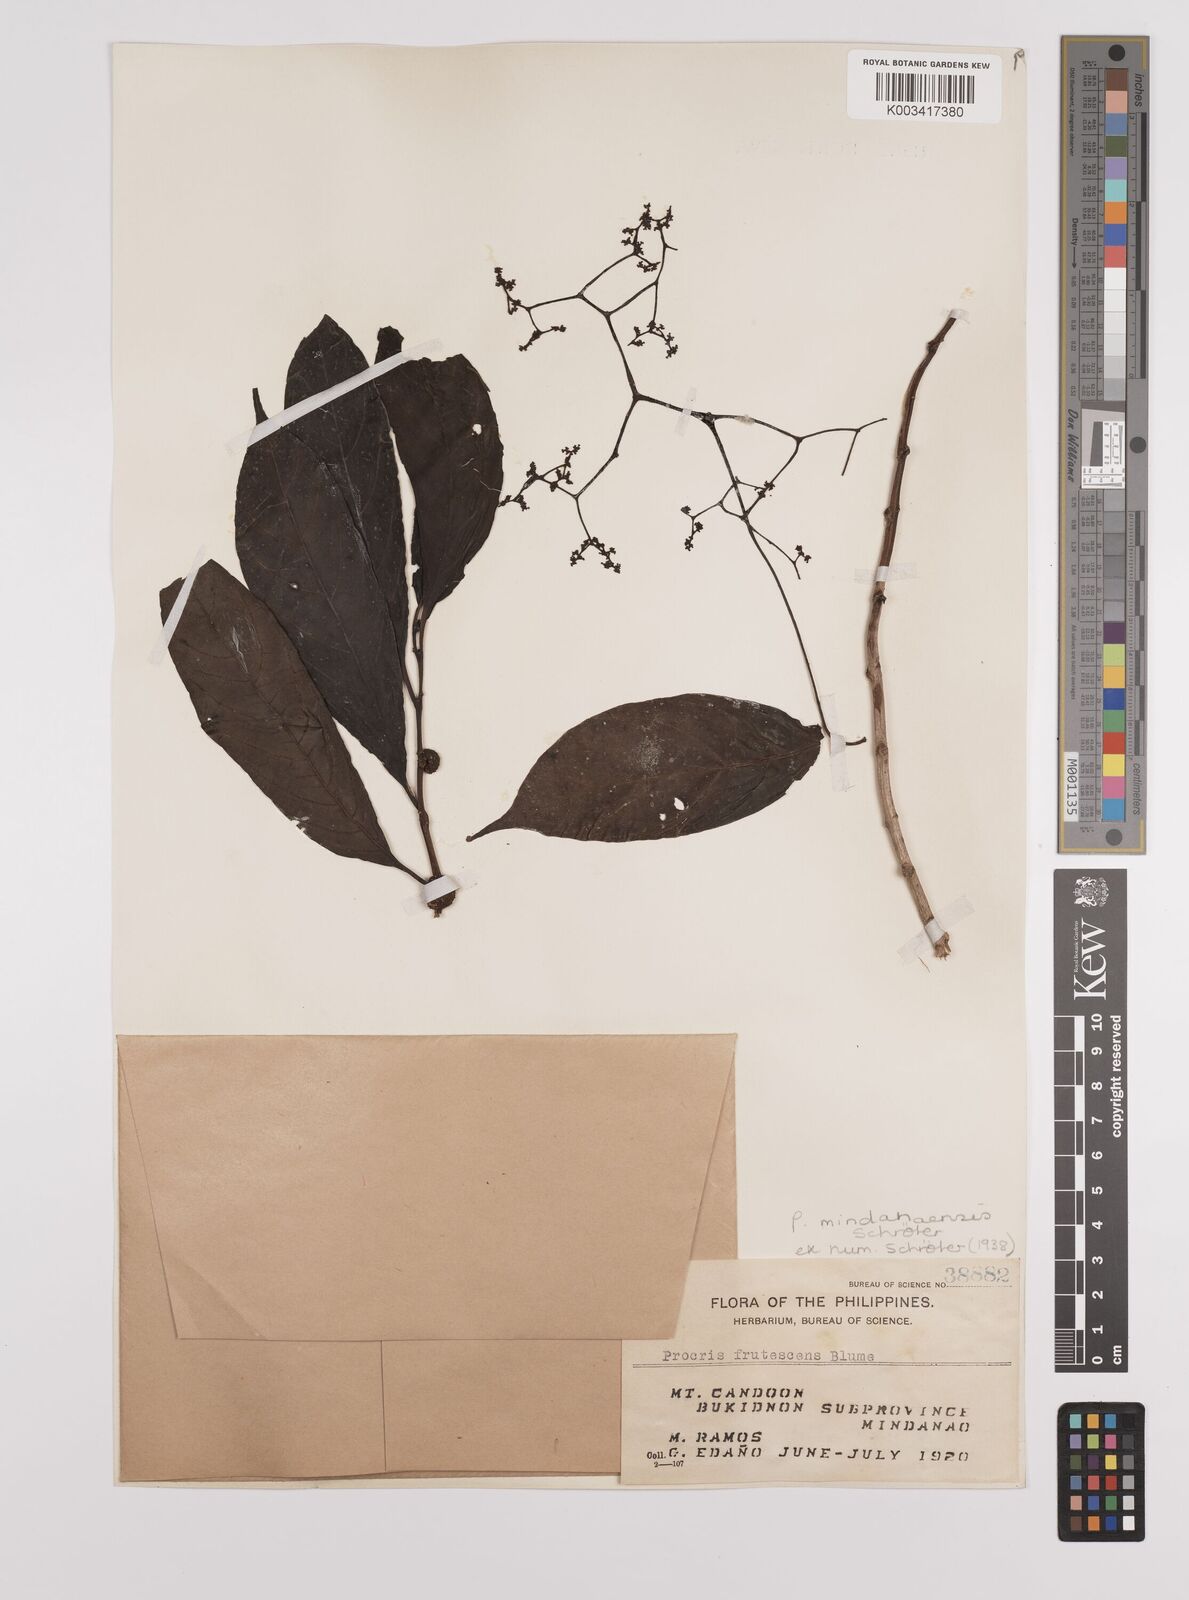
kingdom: Plantae
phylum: Tracheophyta
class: Magnoliopsida
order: Rosales
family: Urticaceae
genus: Procris
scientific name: Procris mindanaensis
